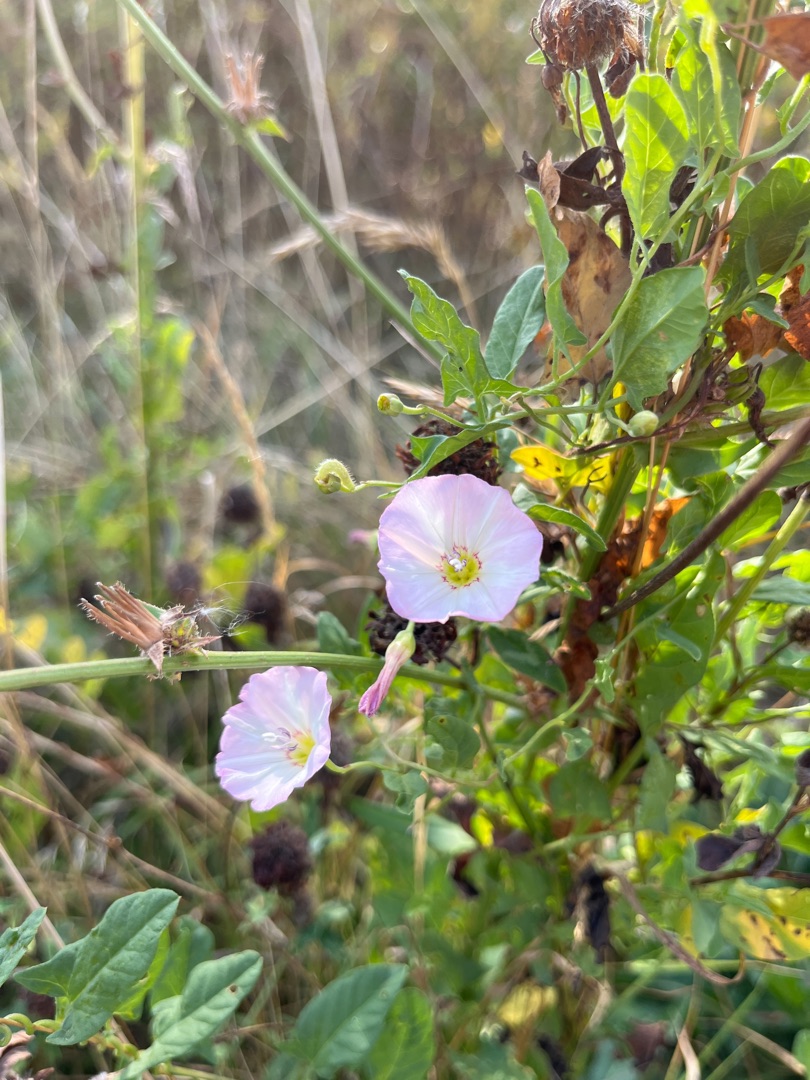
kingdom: Plantae
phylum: Tracheophyta
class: Magnoliopsida
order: Solanales
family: Convolvulaceae
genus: Convolvulus
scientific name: Convolvulus arvensis
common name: Ager-snerle
